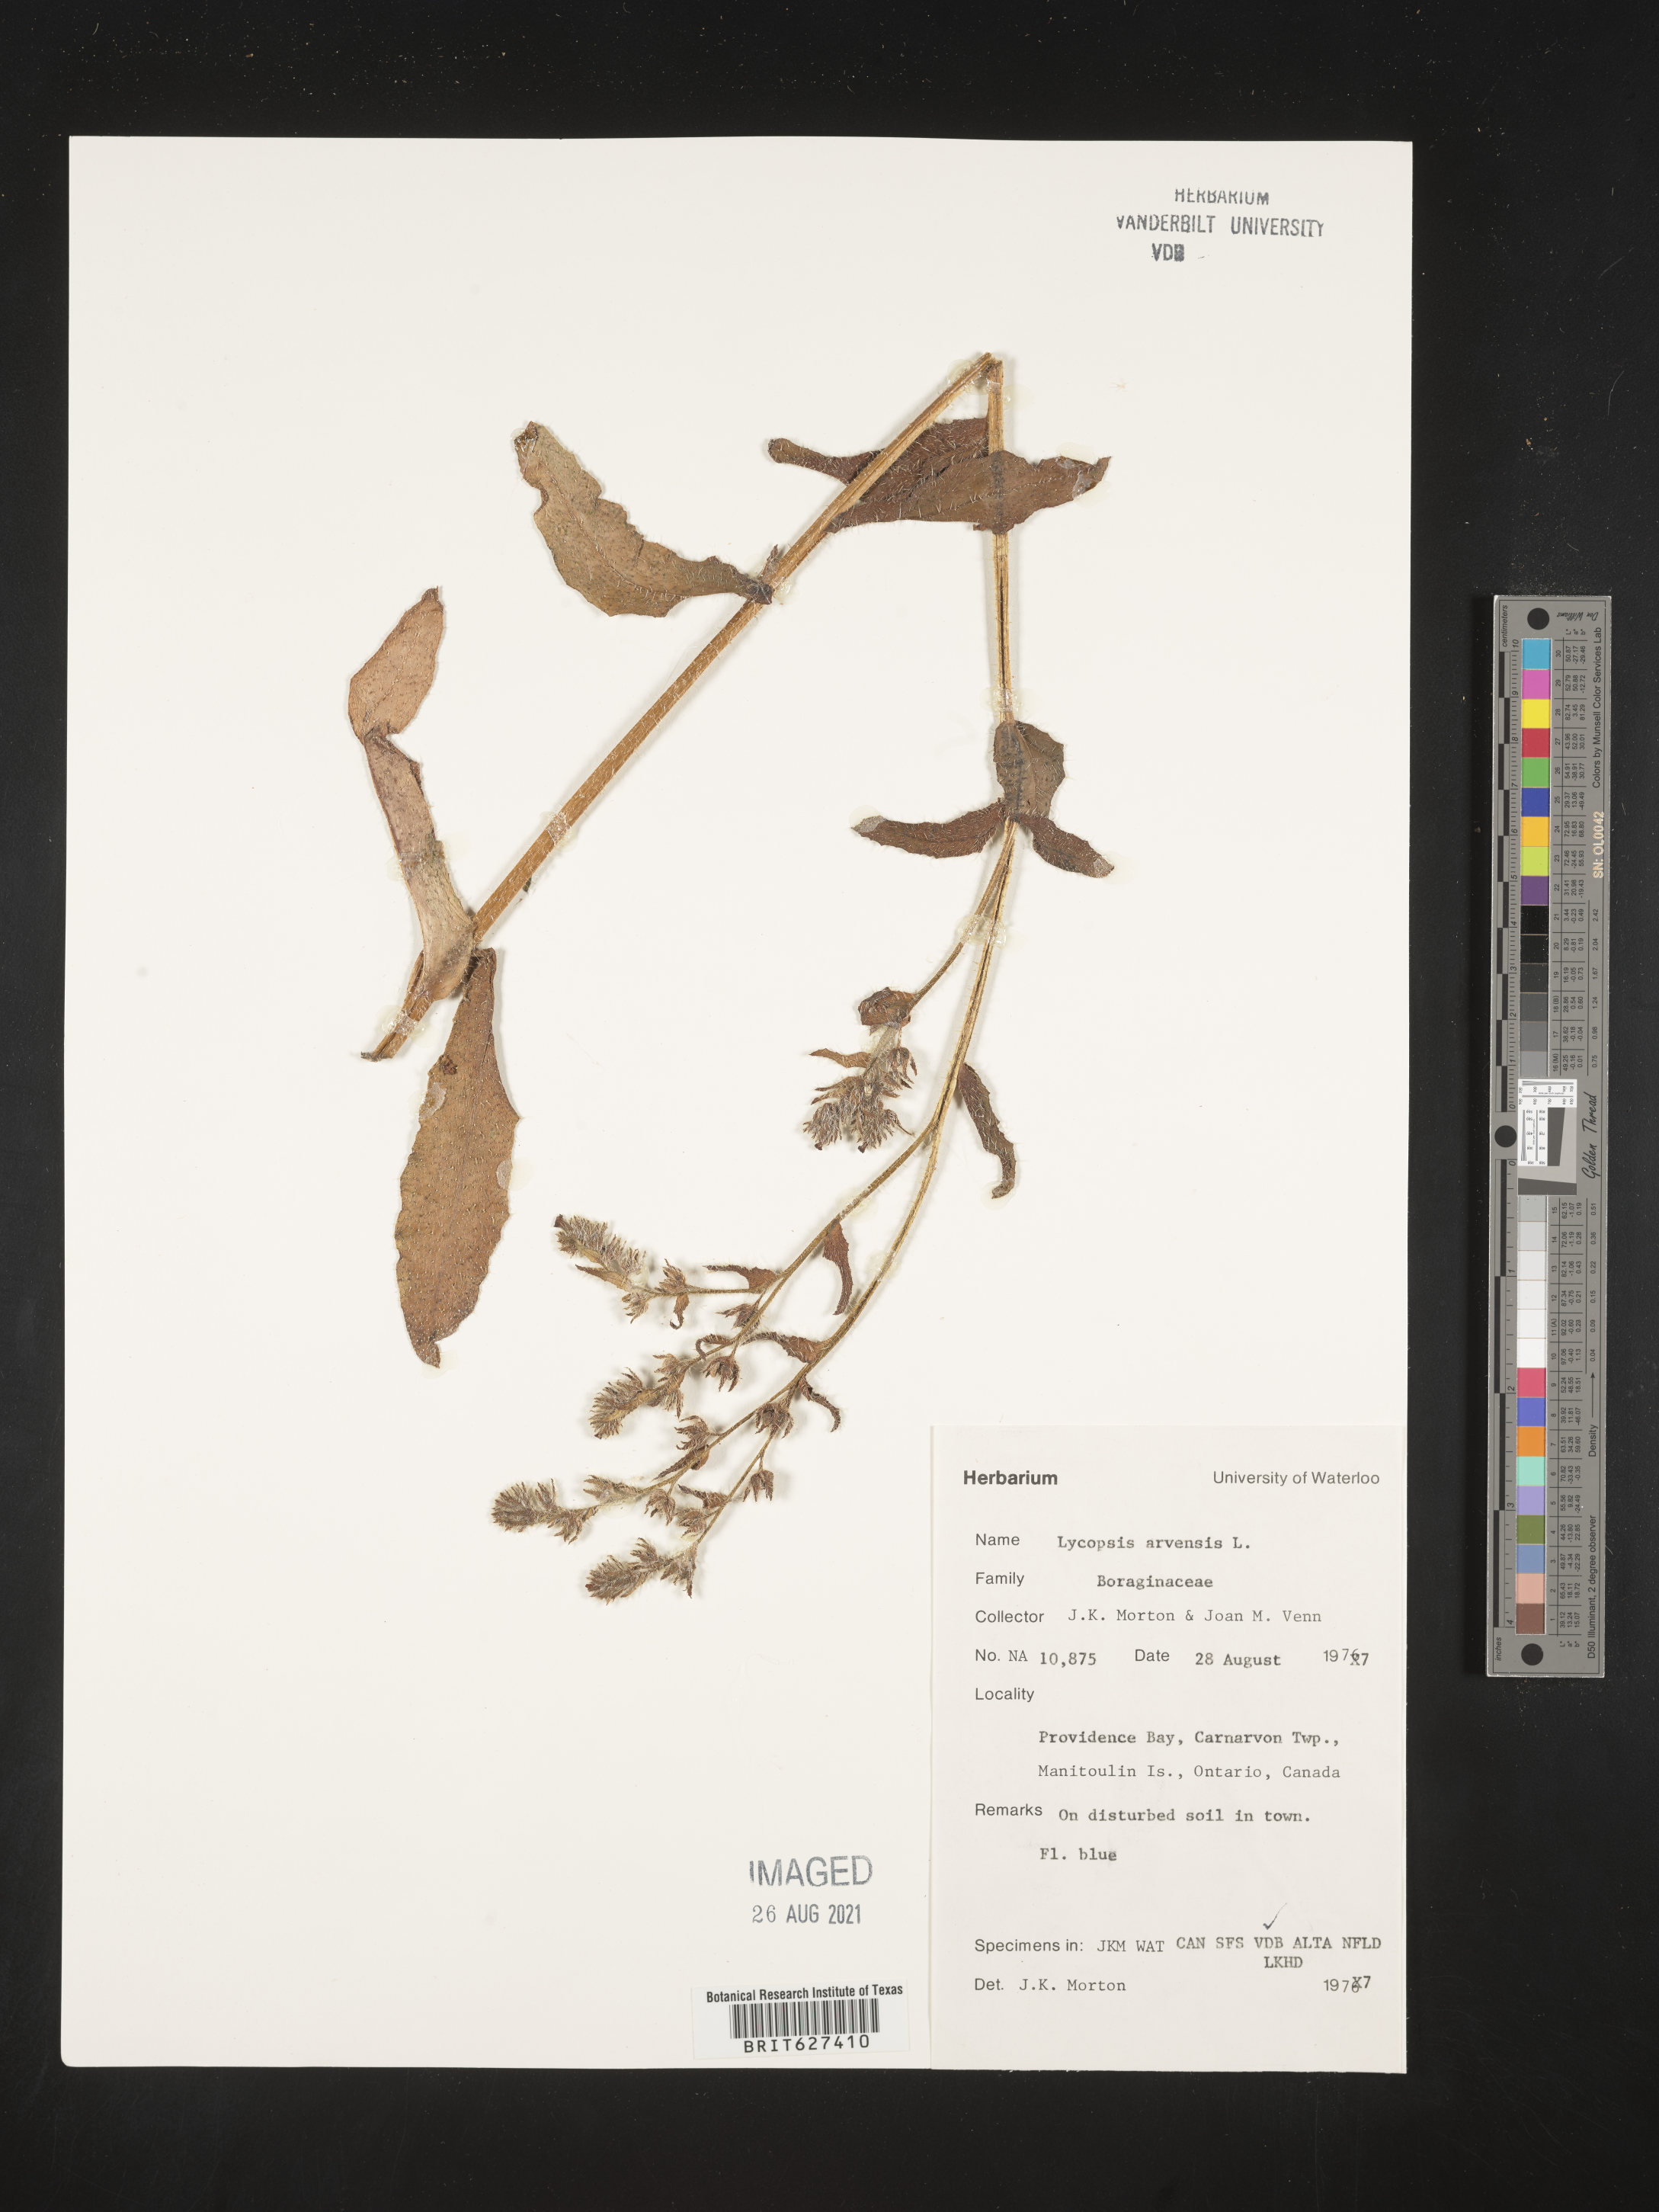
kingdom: Plantae
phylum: Tracheophyta
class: Magnoliopsida
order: Boraginales
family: Boraginaceae
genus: Lycopsis
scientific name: Lycopsis arvensis
